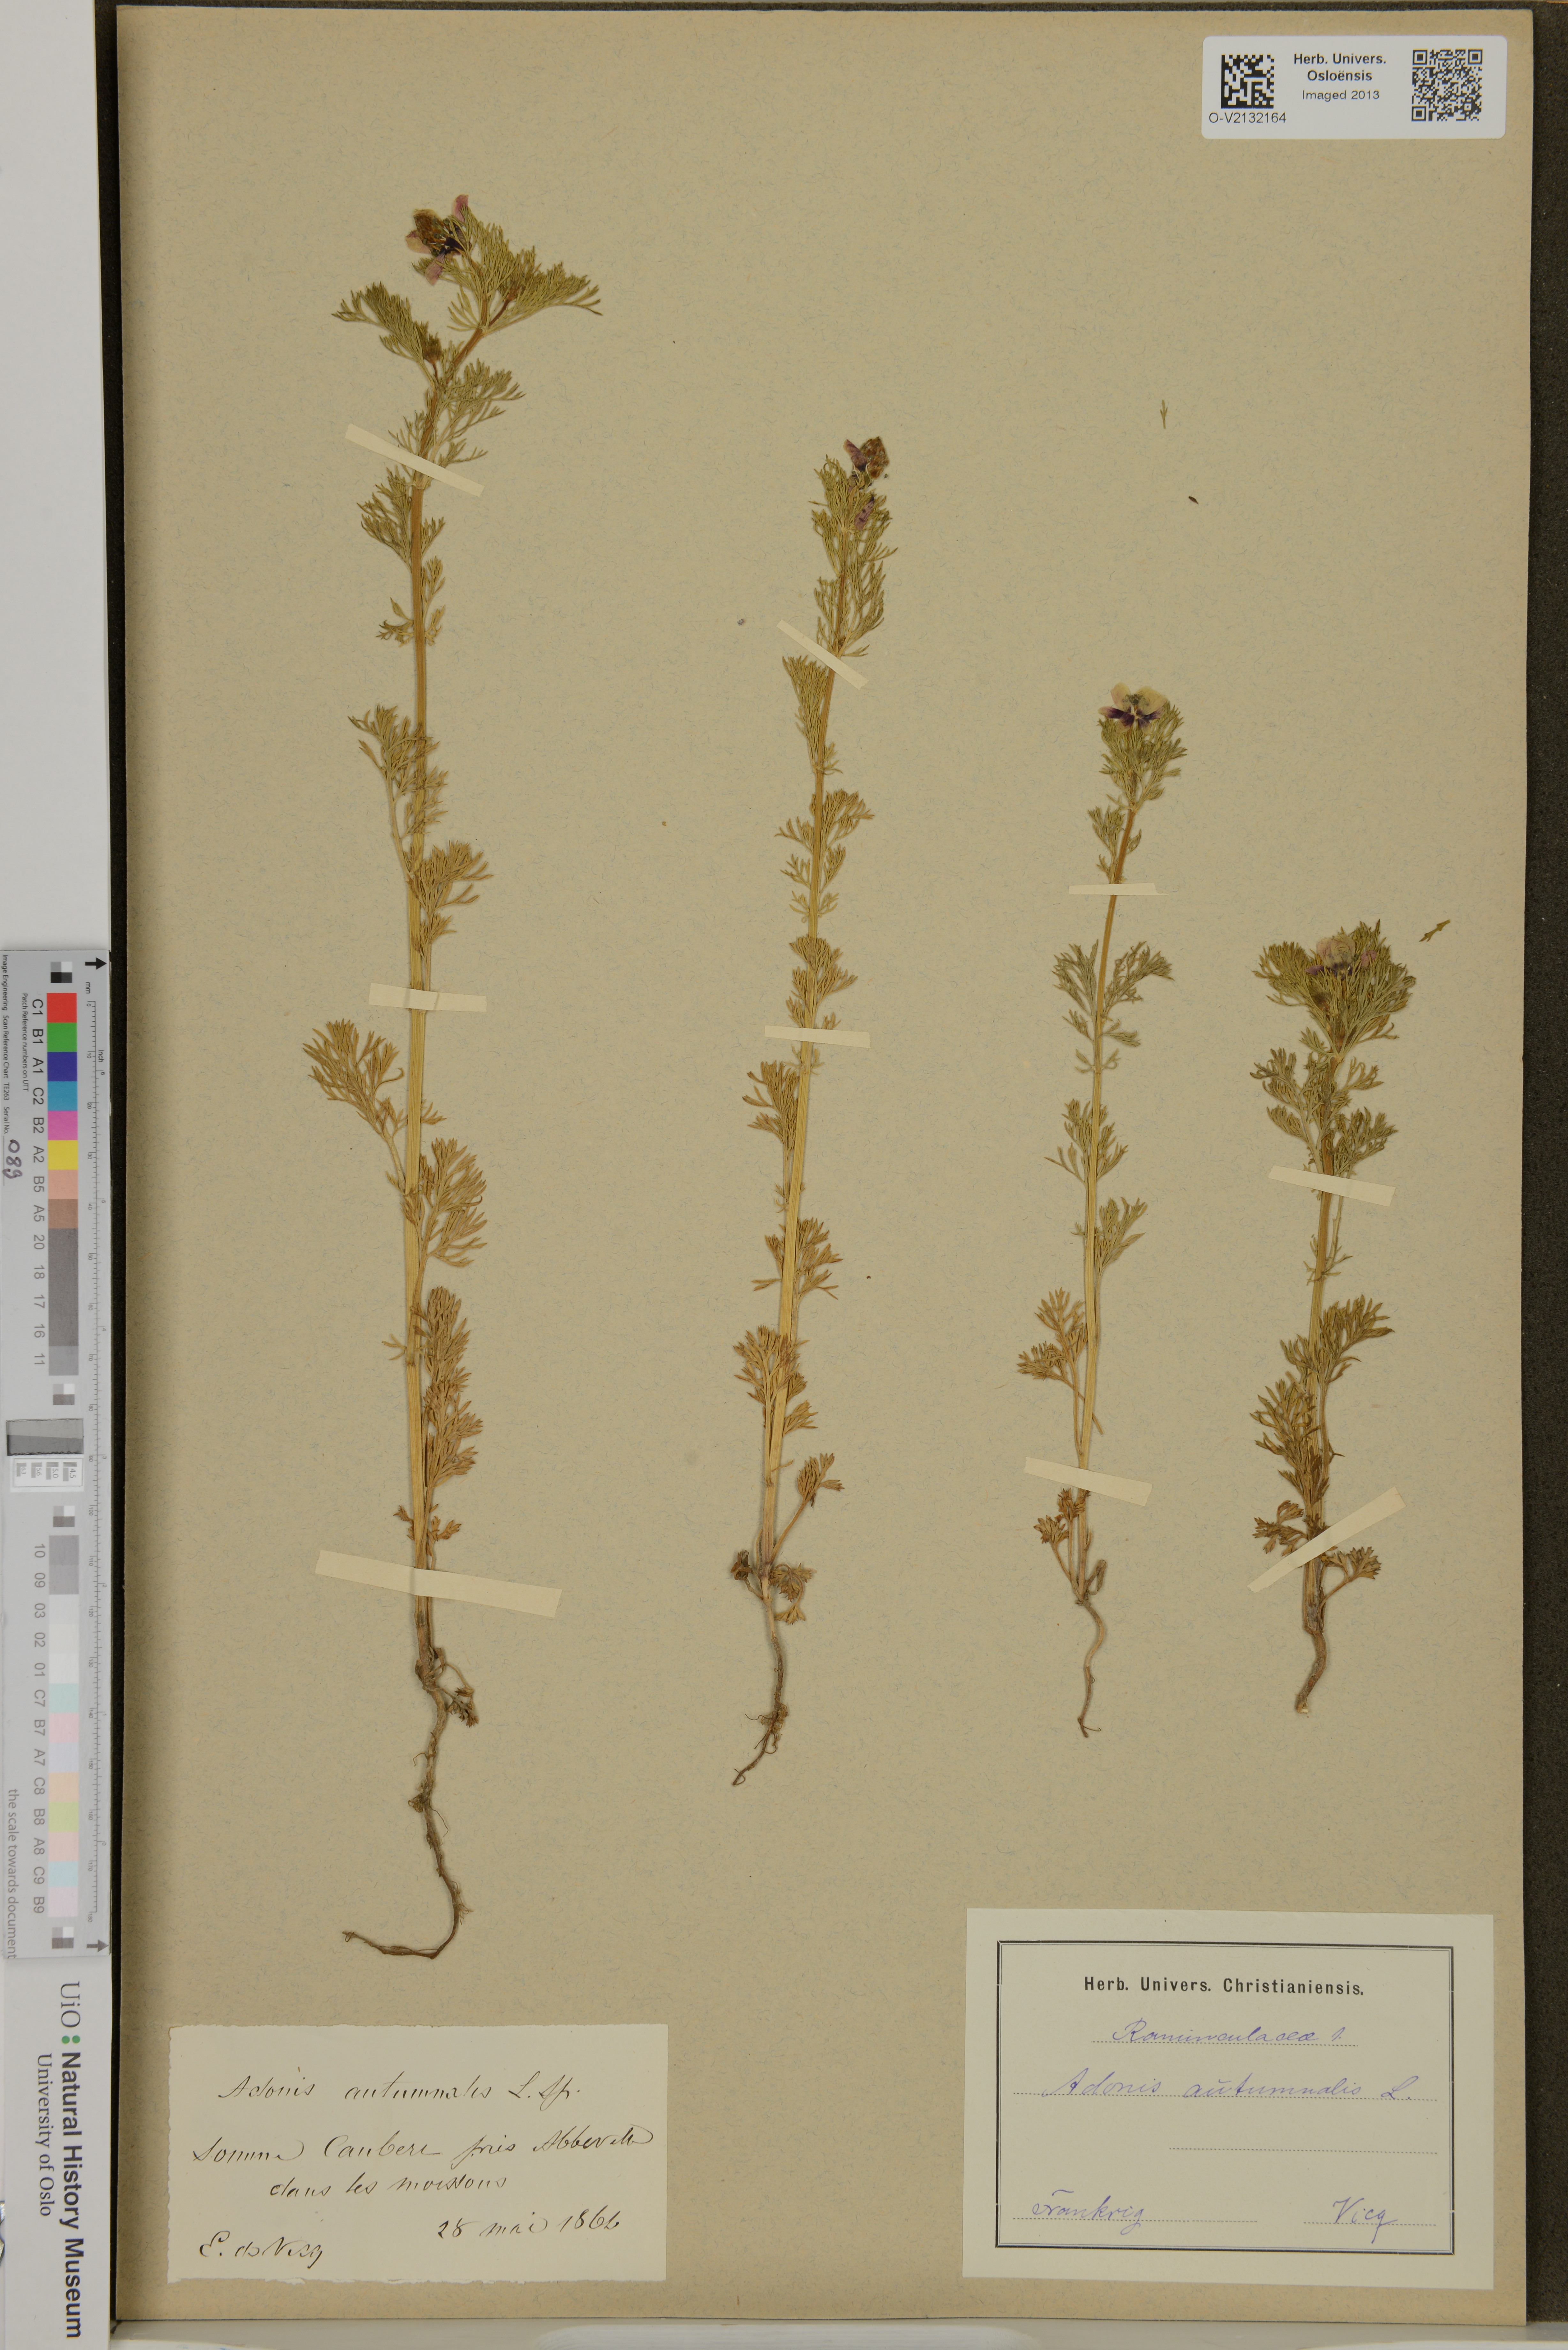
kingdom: Plantae
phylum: Tracheophyta
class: Magnoliopsida
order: Ranunculales
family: Ranunculaceae
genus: Adonis
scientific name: Adonis annua
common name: Pheasant's-eye
